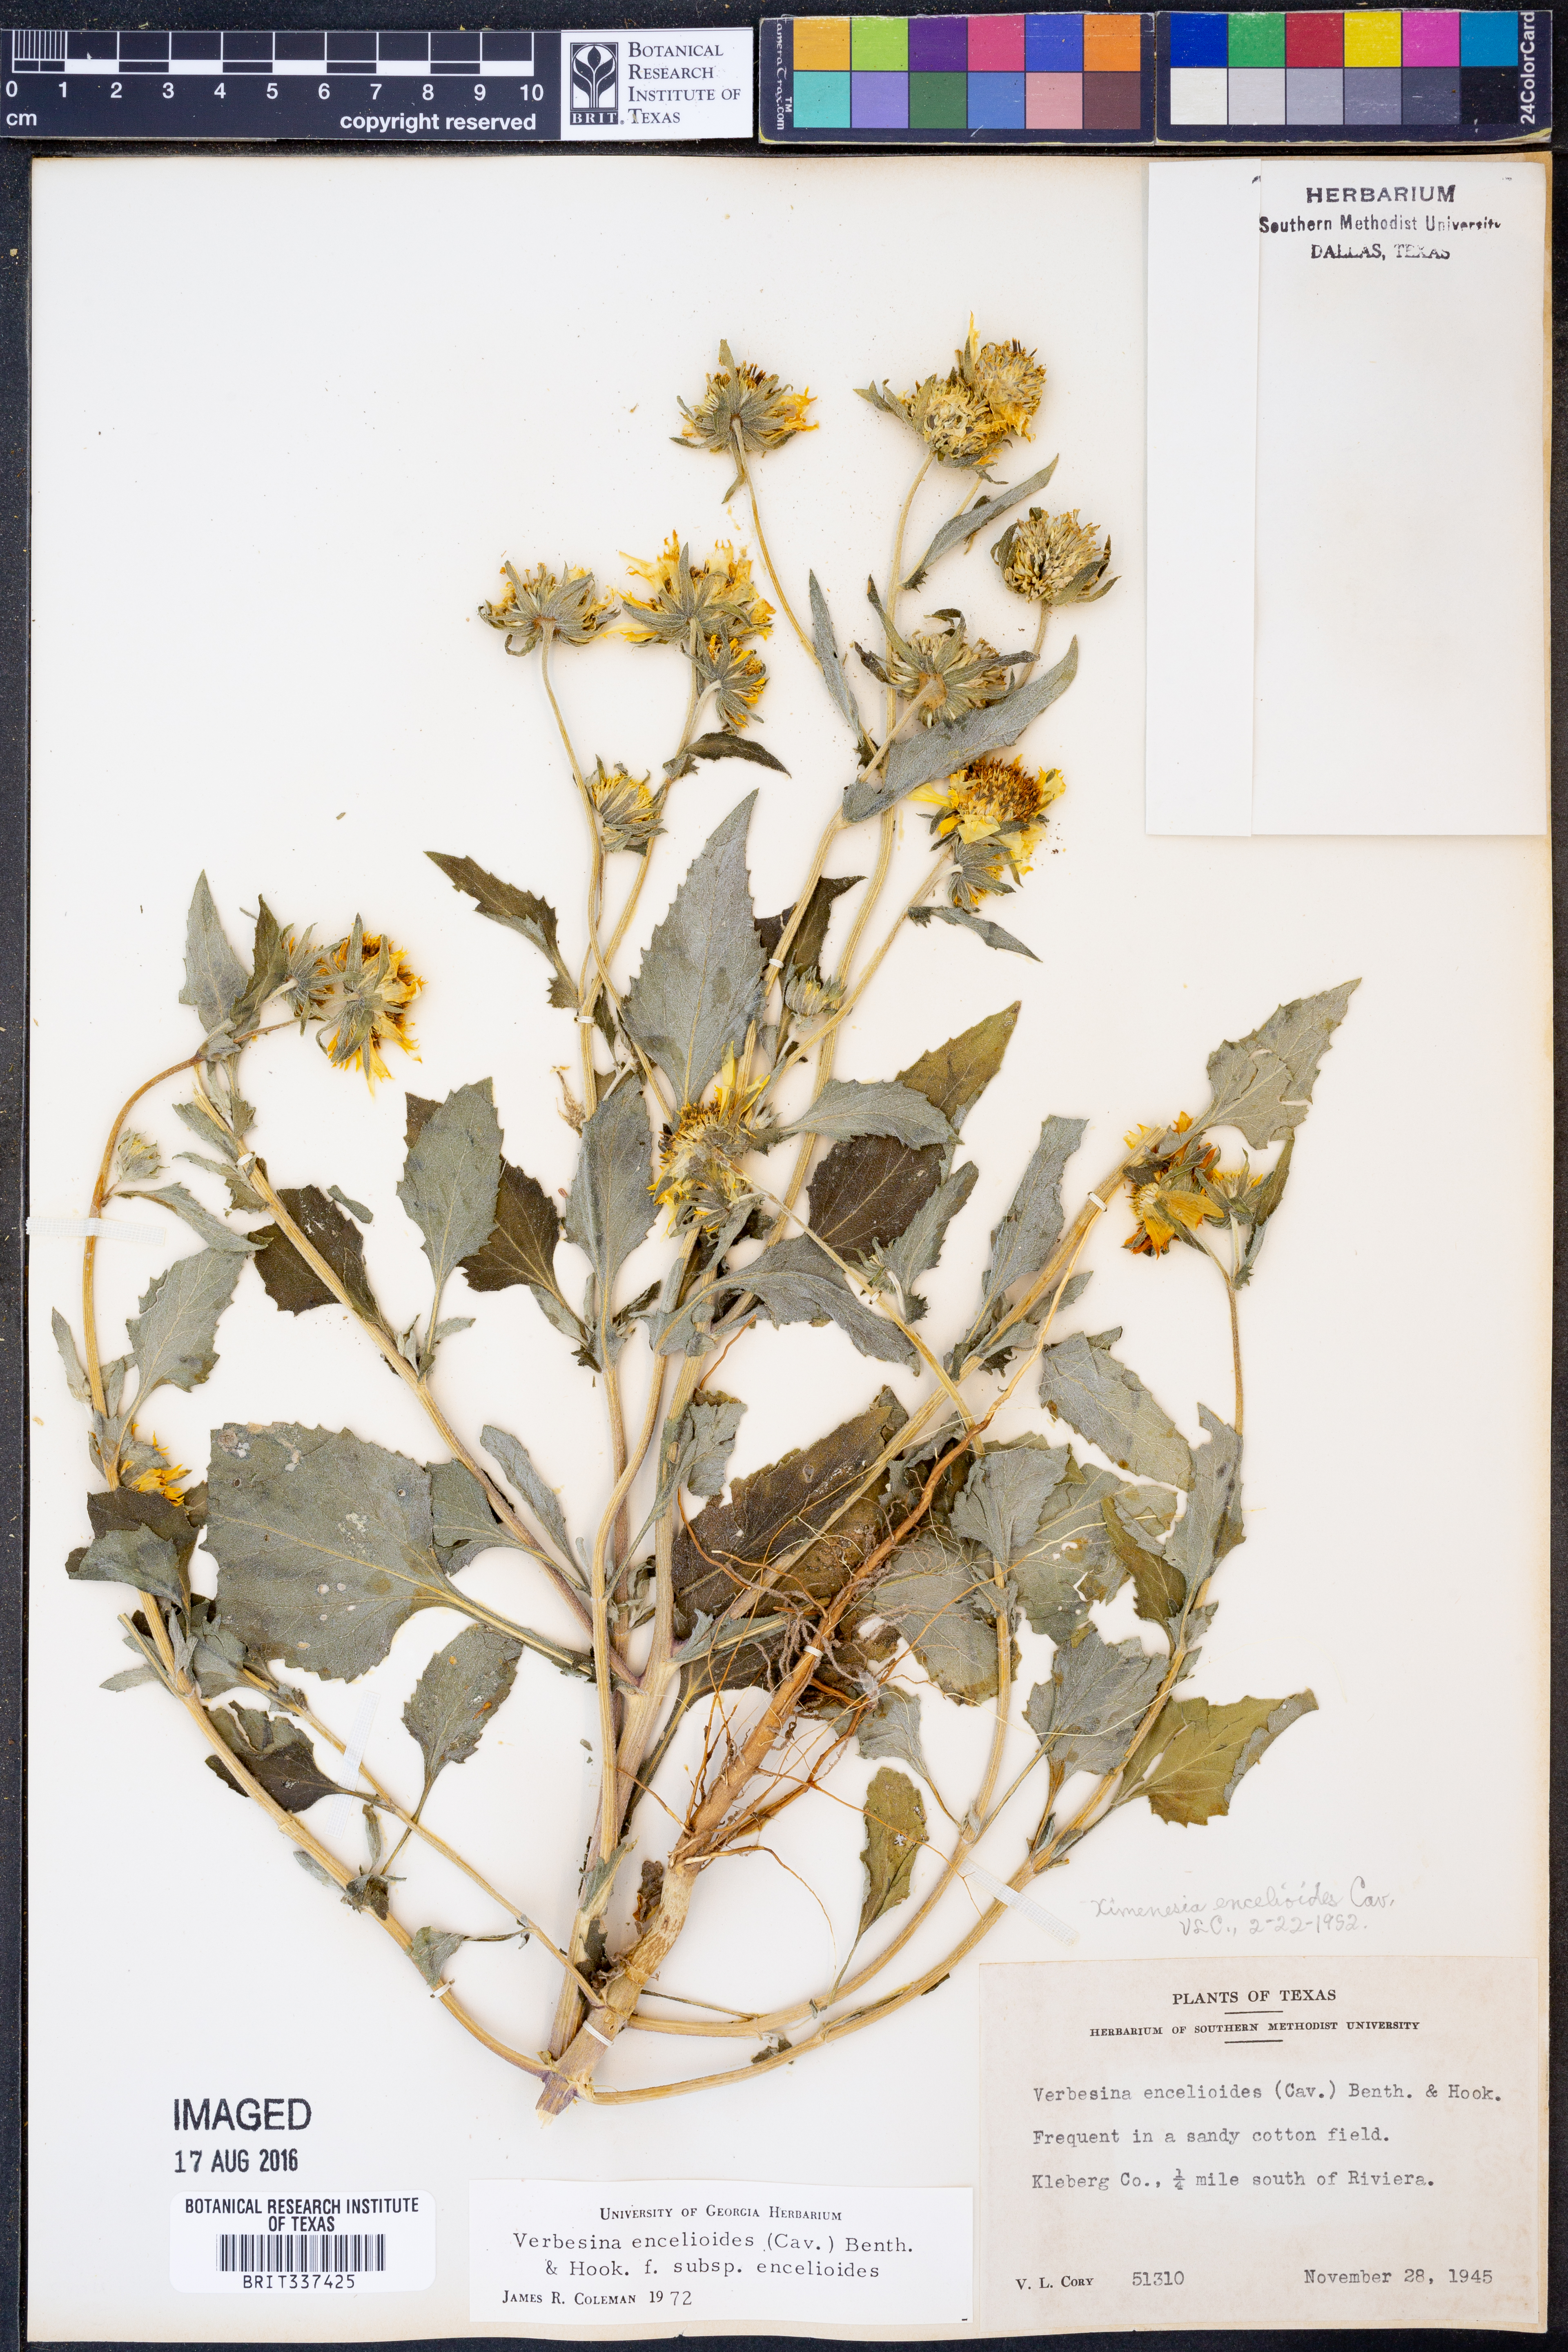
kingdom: Plantae
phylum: Tracheophyta
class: Magnoliopsida
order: Asterales
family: Asteraceae
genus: Verbesina
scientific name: Verbesina encelioides
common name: Golden crownbeard
